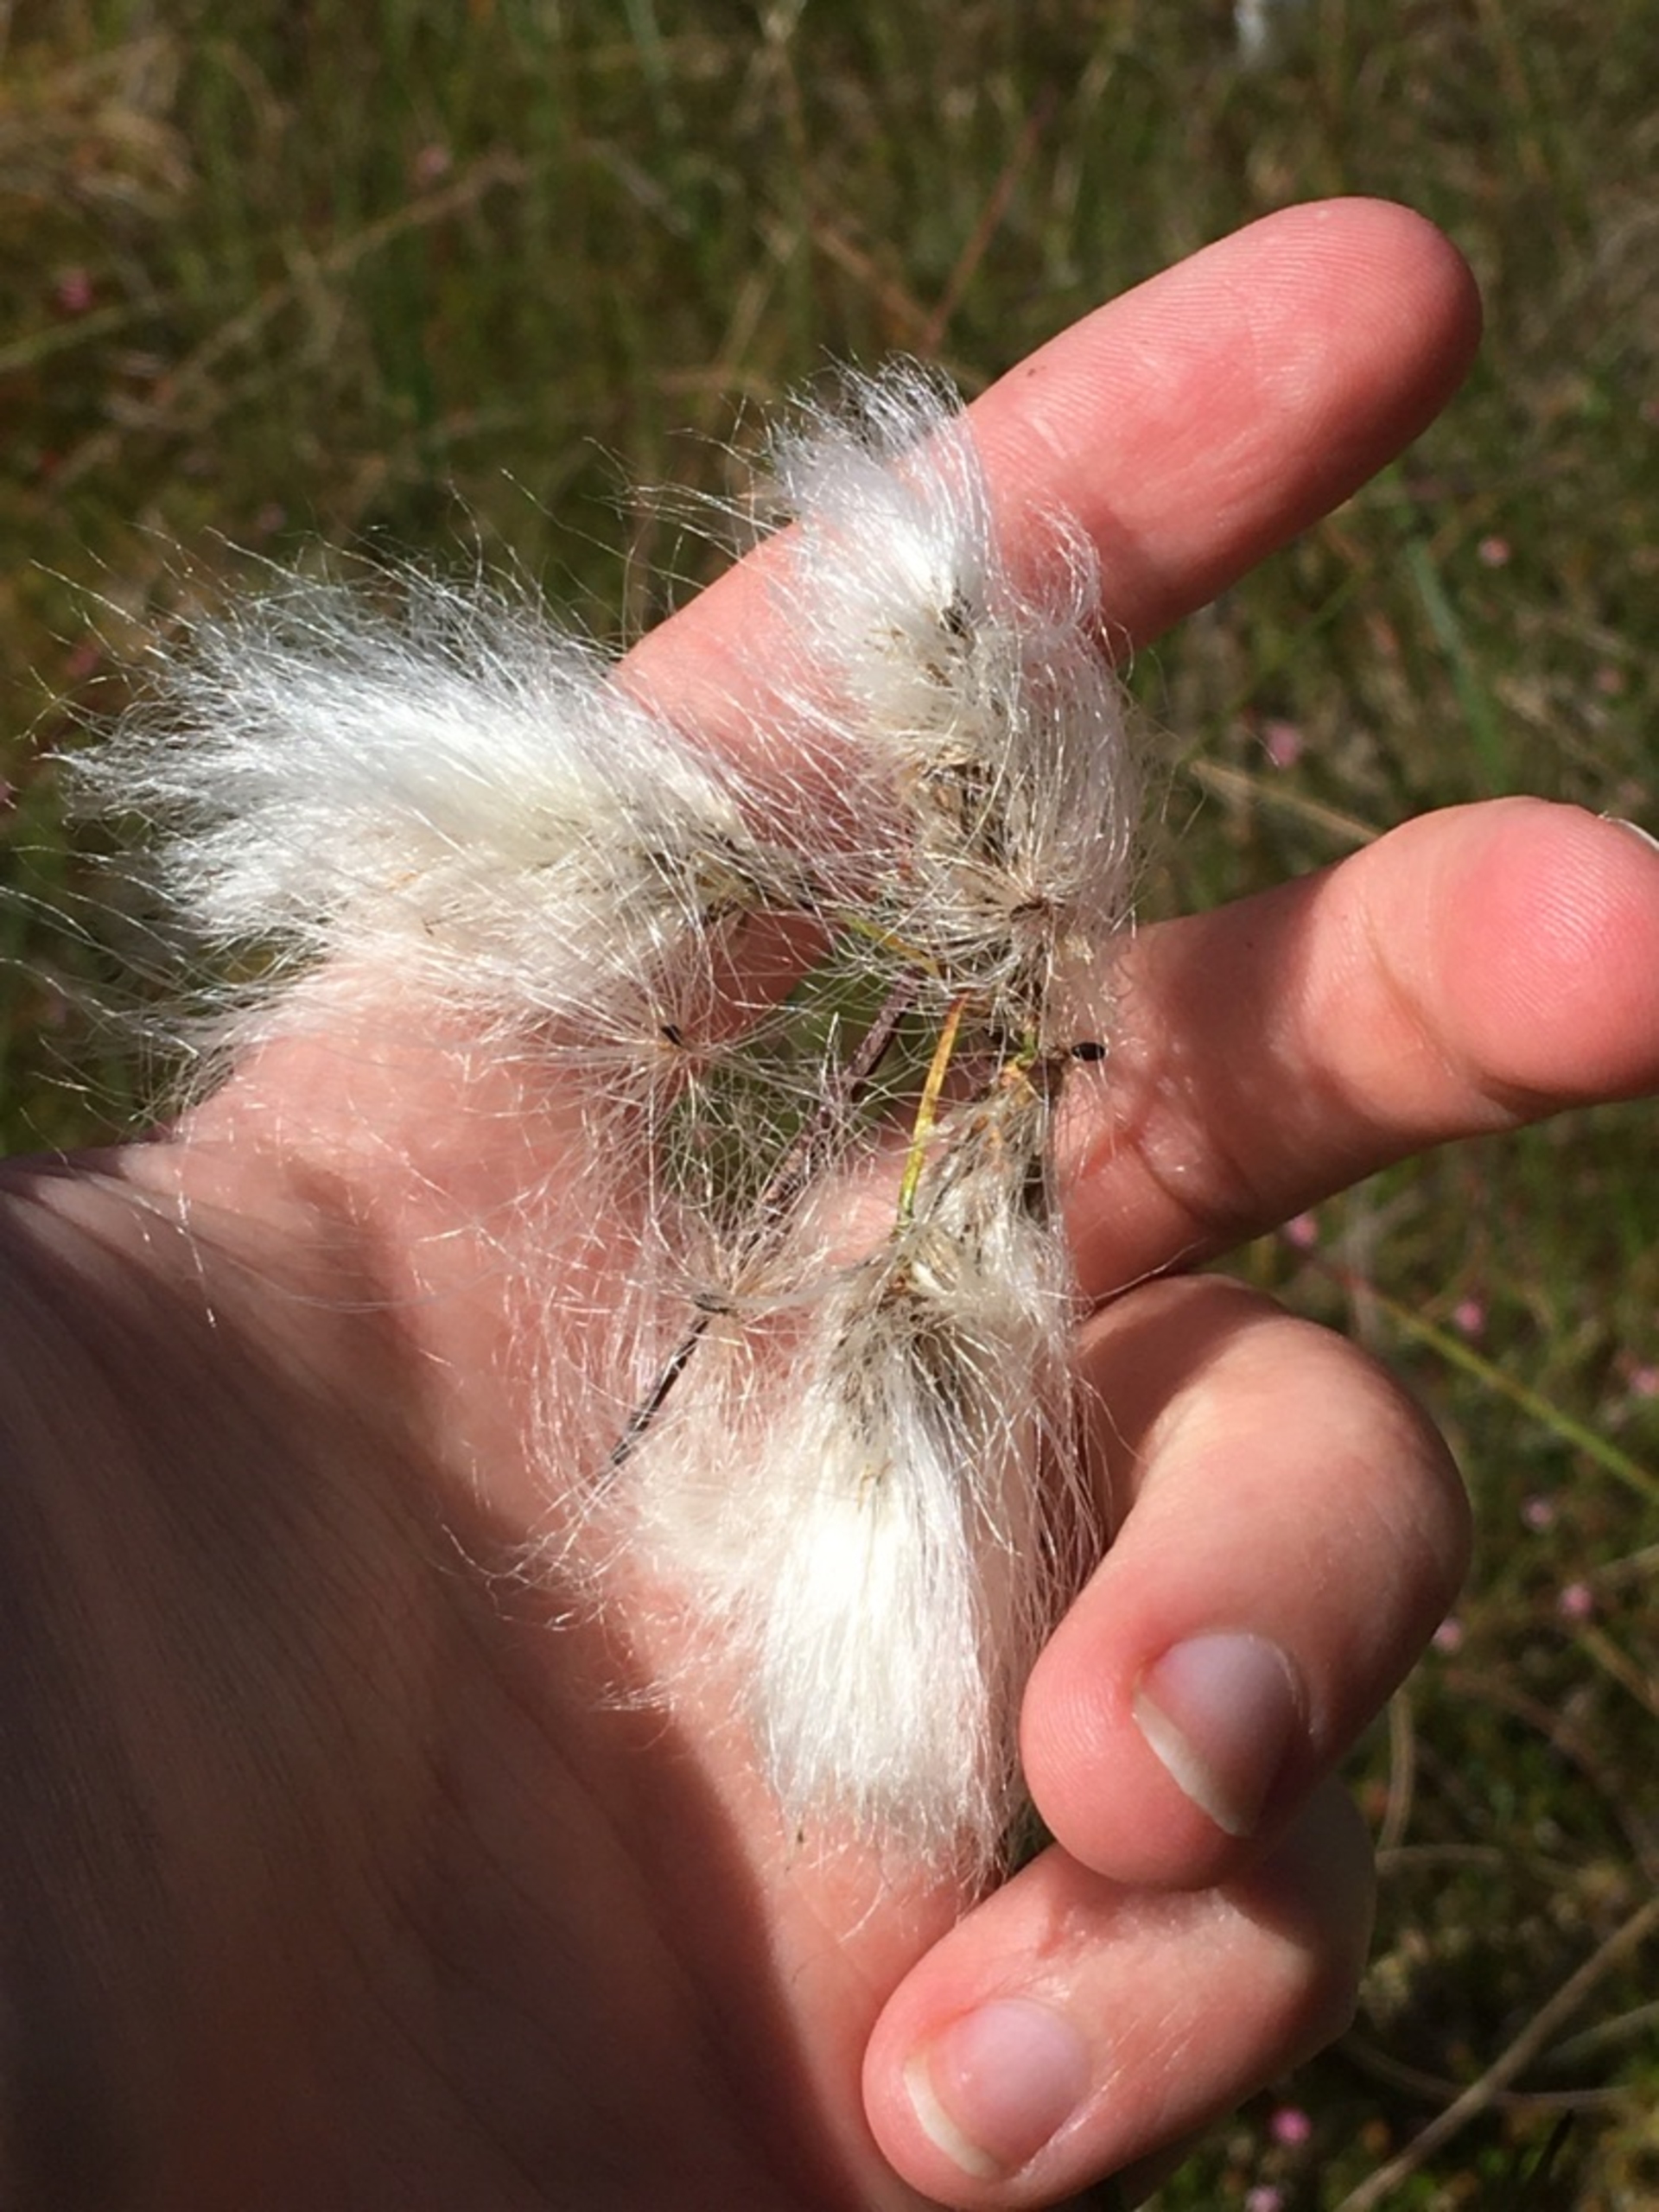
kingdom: Plantae
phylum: Tracheophyta
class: Liliopsida
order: Poales
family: Cyperaceae
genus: Eriophorum
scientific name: Eriophorum angustifolium
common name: Smalbladet kæruld
